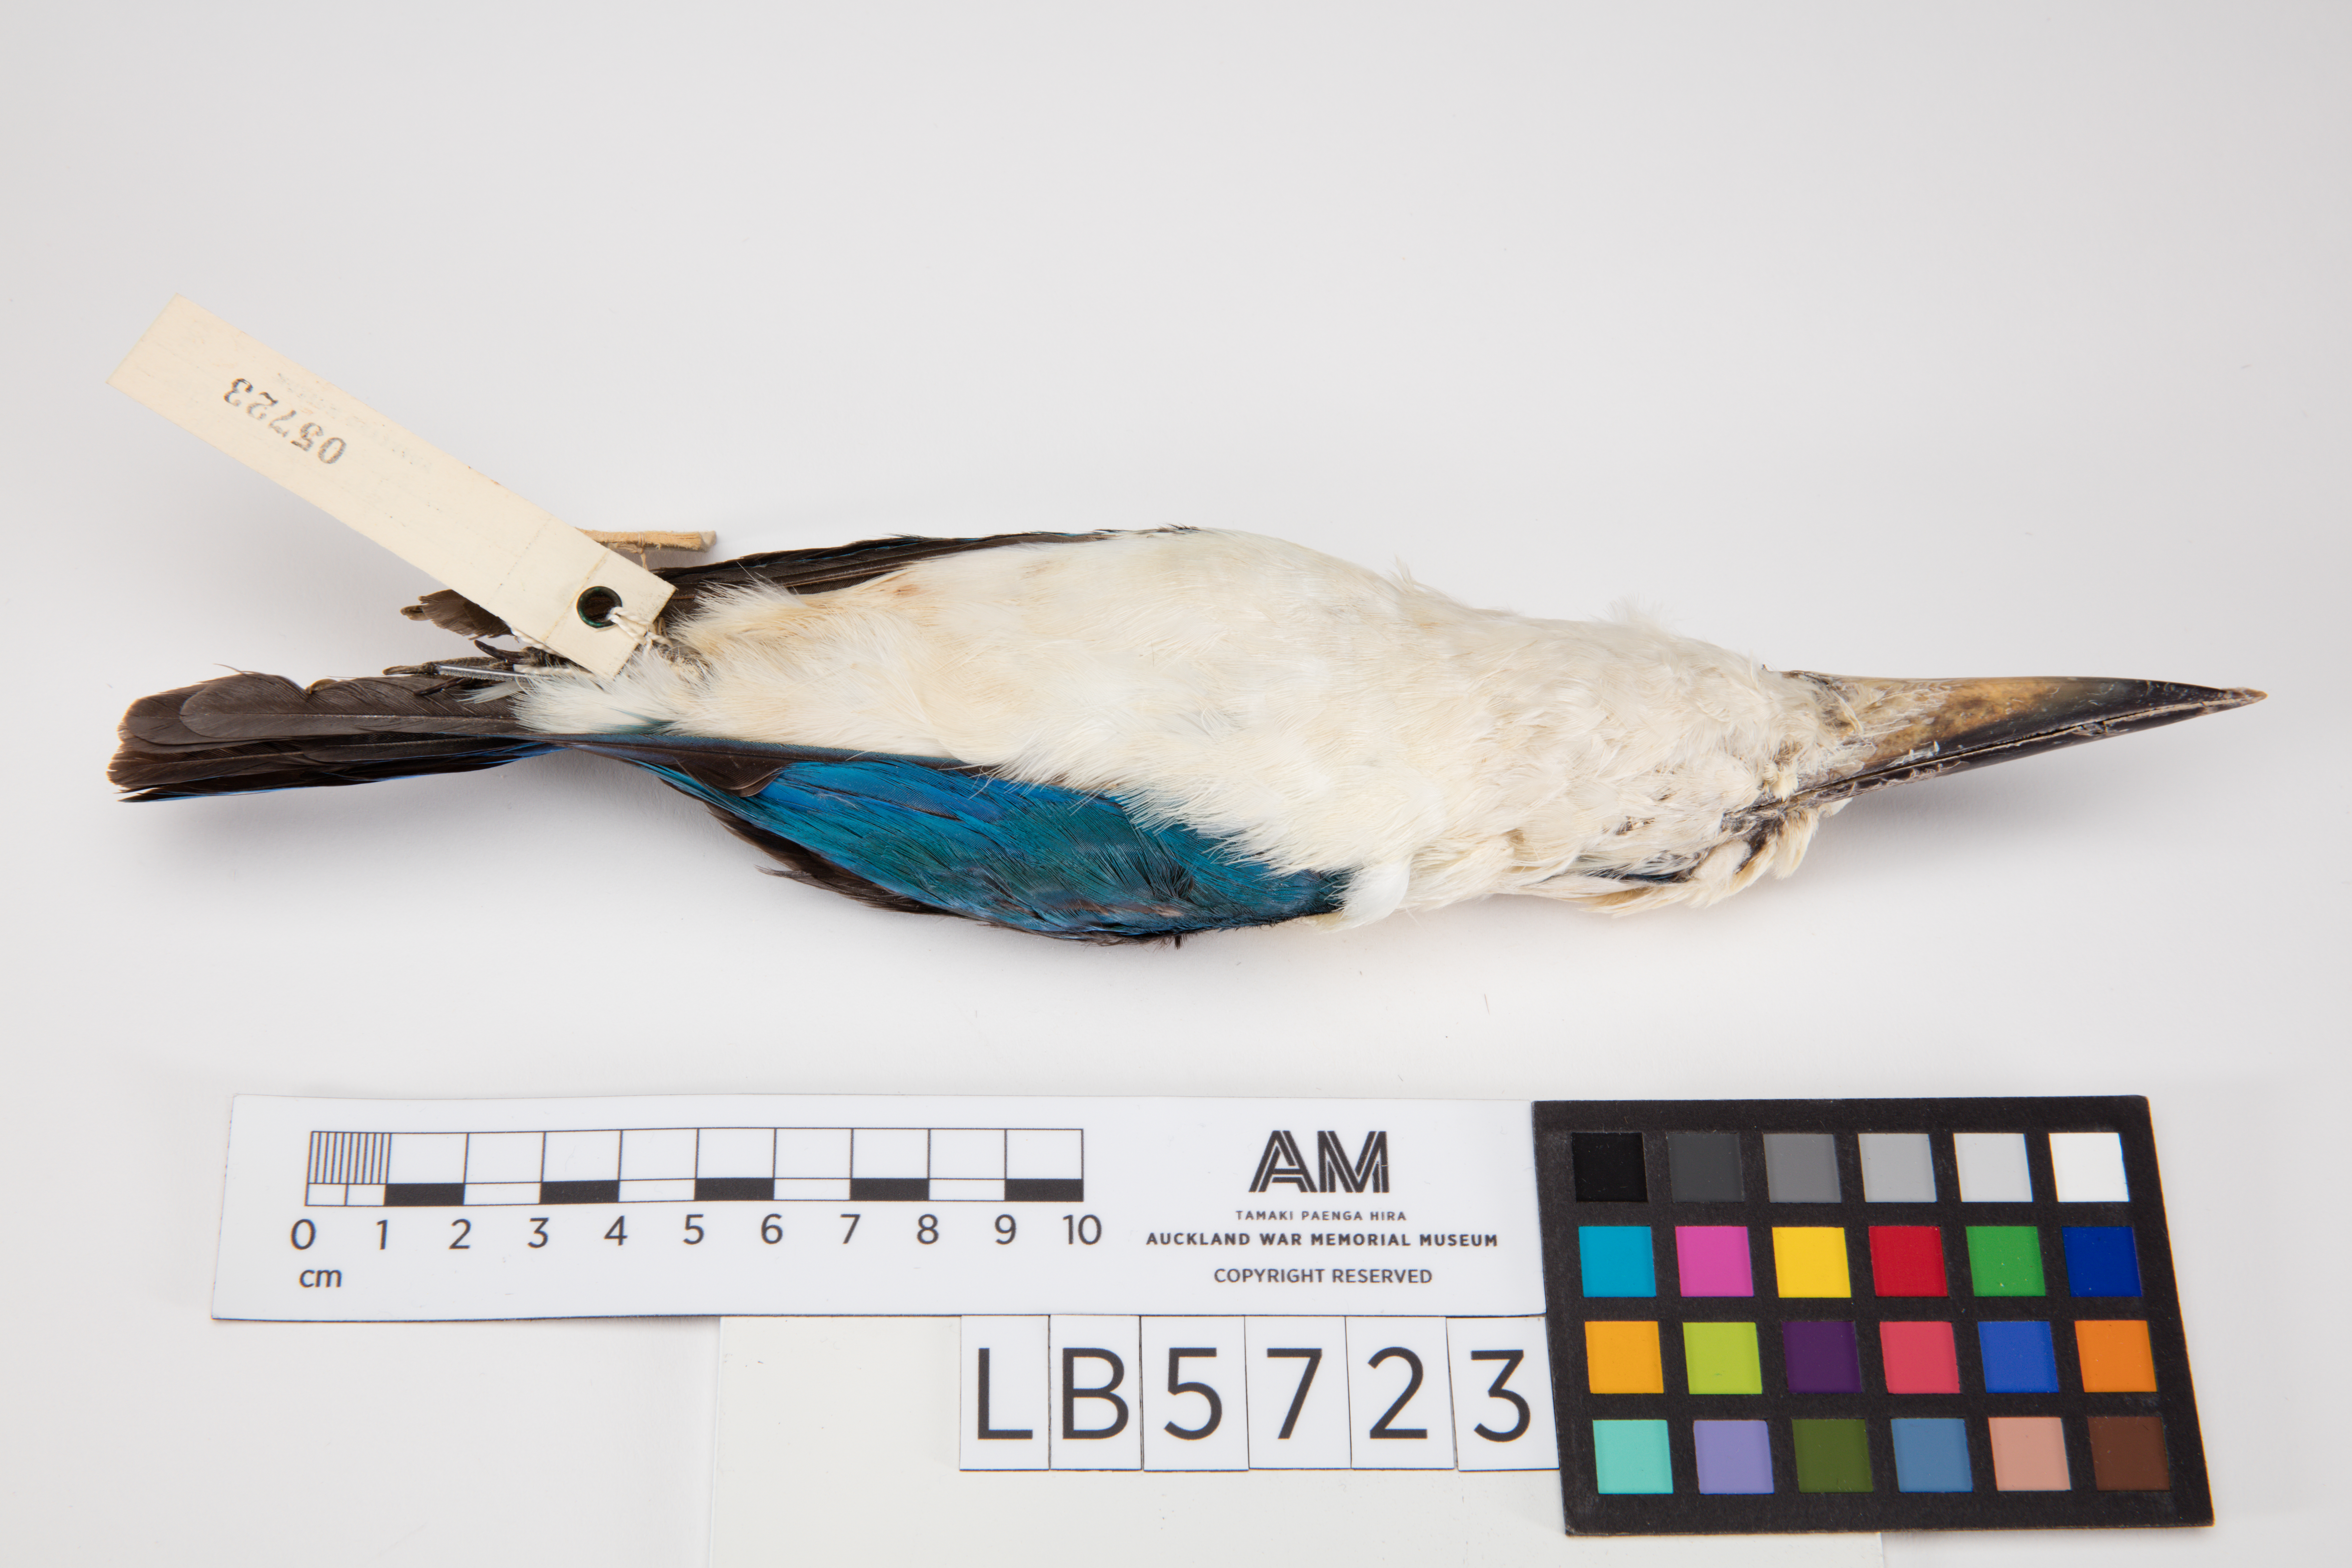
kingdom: Animalia
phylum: Chordata
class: Aves
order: Coraciiformes
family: Alcedinidae
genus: Todiramphus
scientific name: Todiramphus saurophagus
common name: Beach kingfisher
